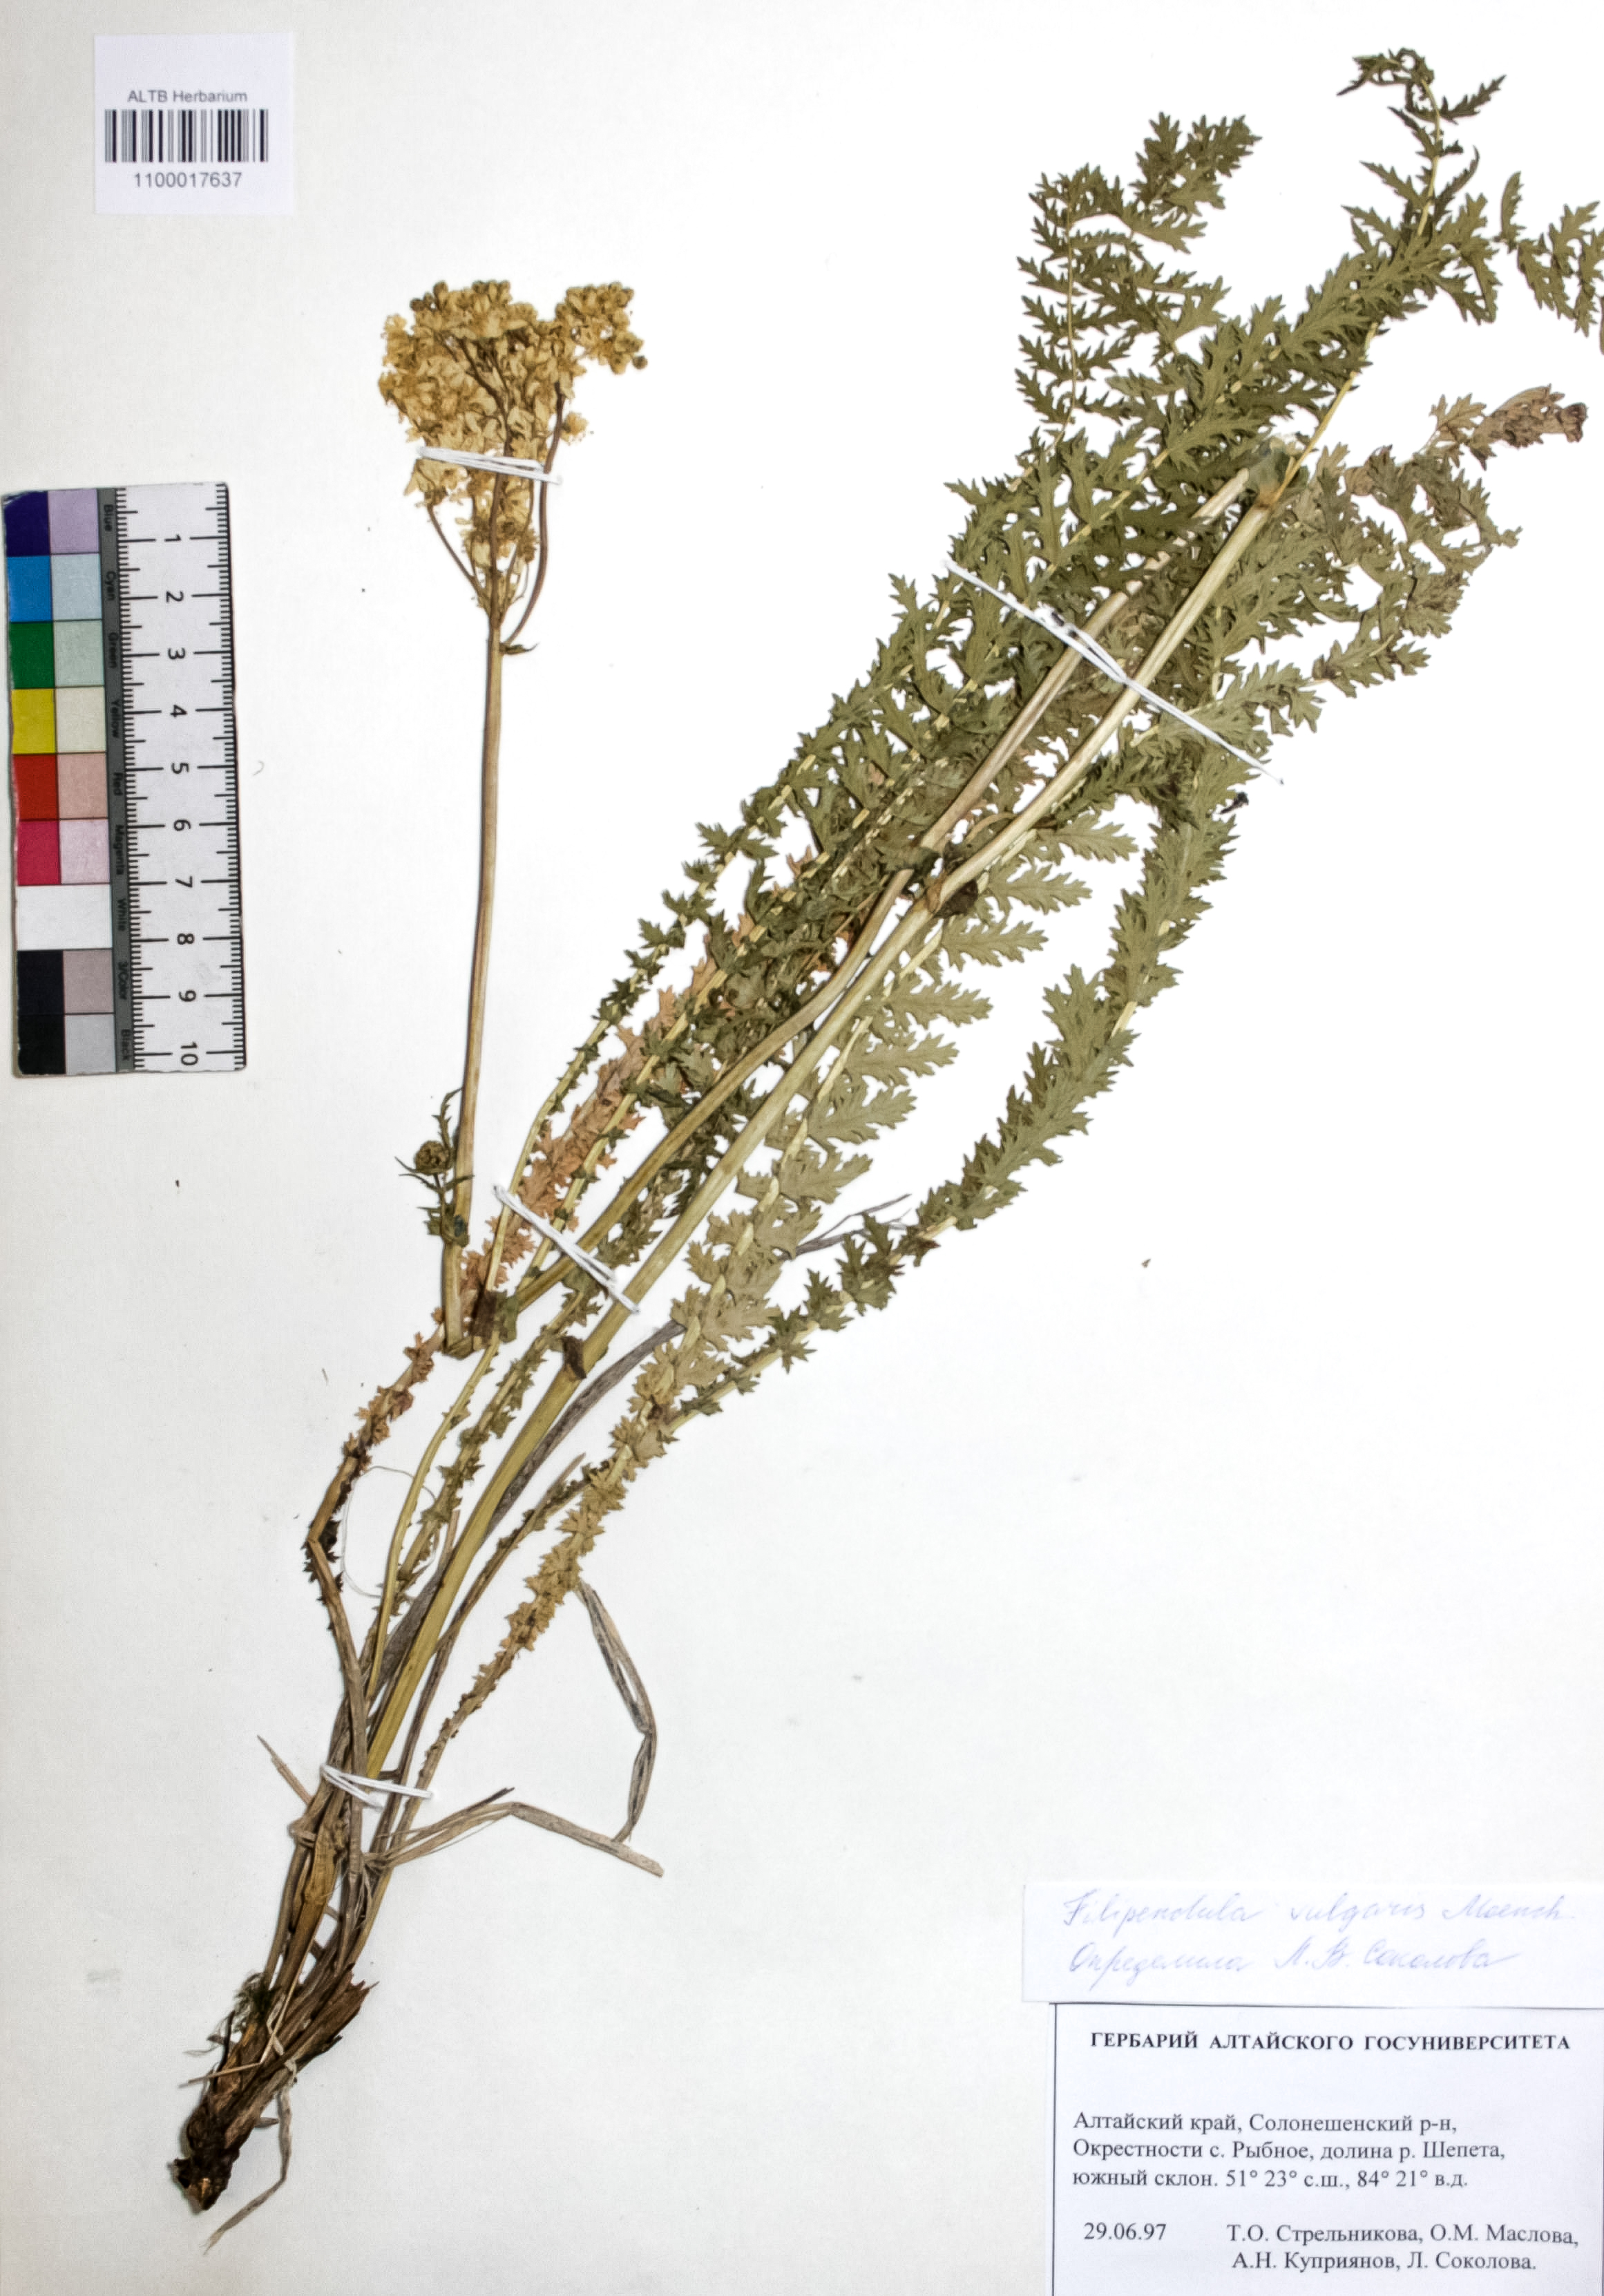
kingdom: Plantae
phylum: Tracheophyta
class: Magnoliopsida
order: Rosales
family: Rosaceae
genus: Filipendula
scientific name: Filipendula vulgaris
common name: Dropwort
